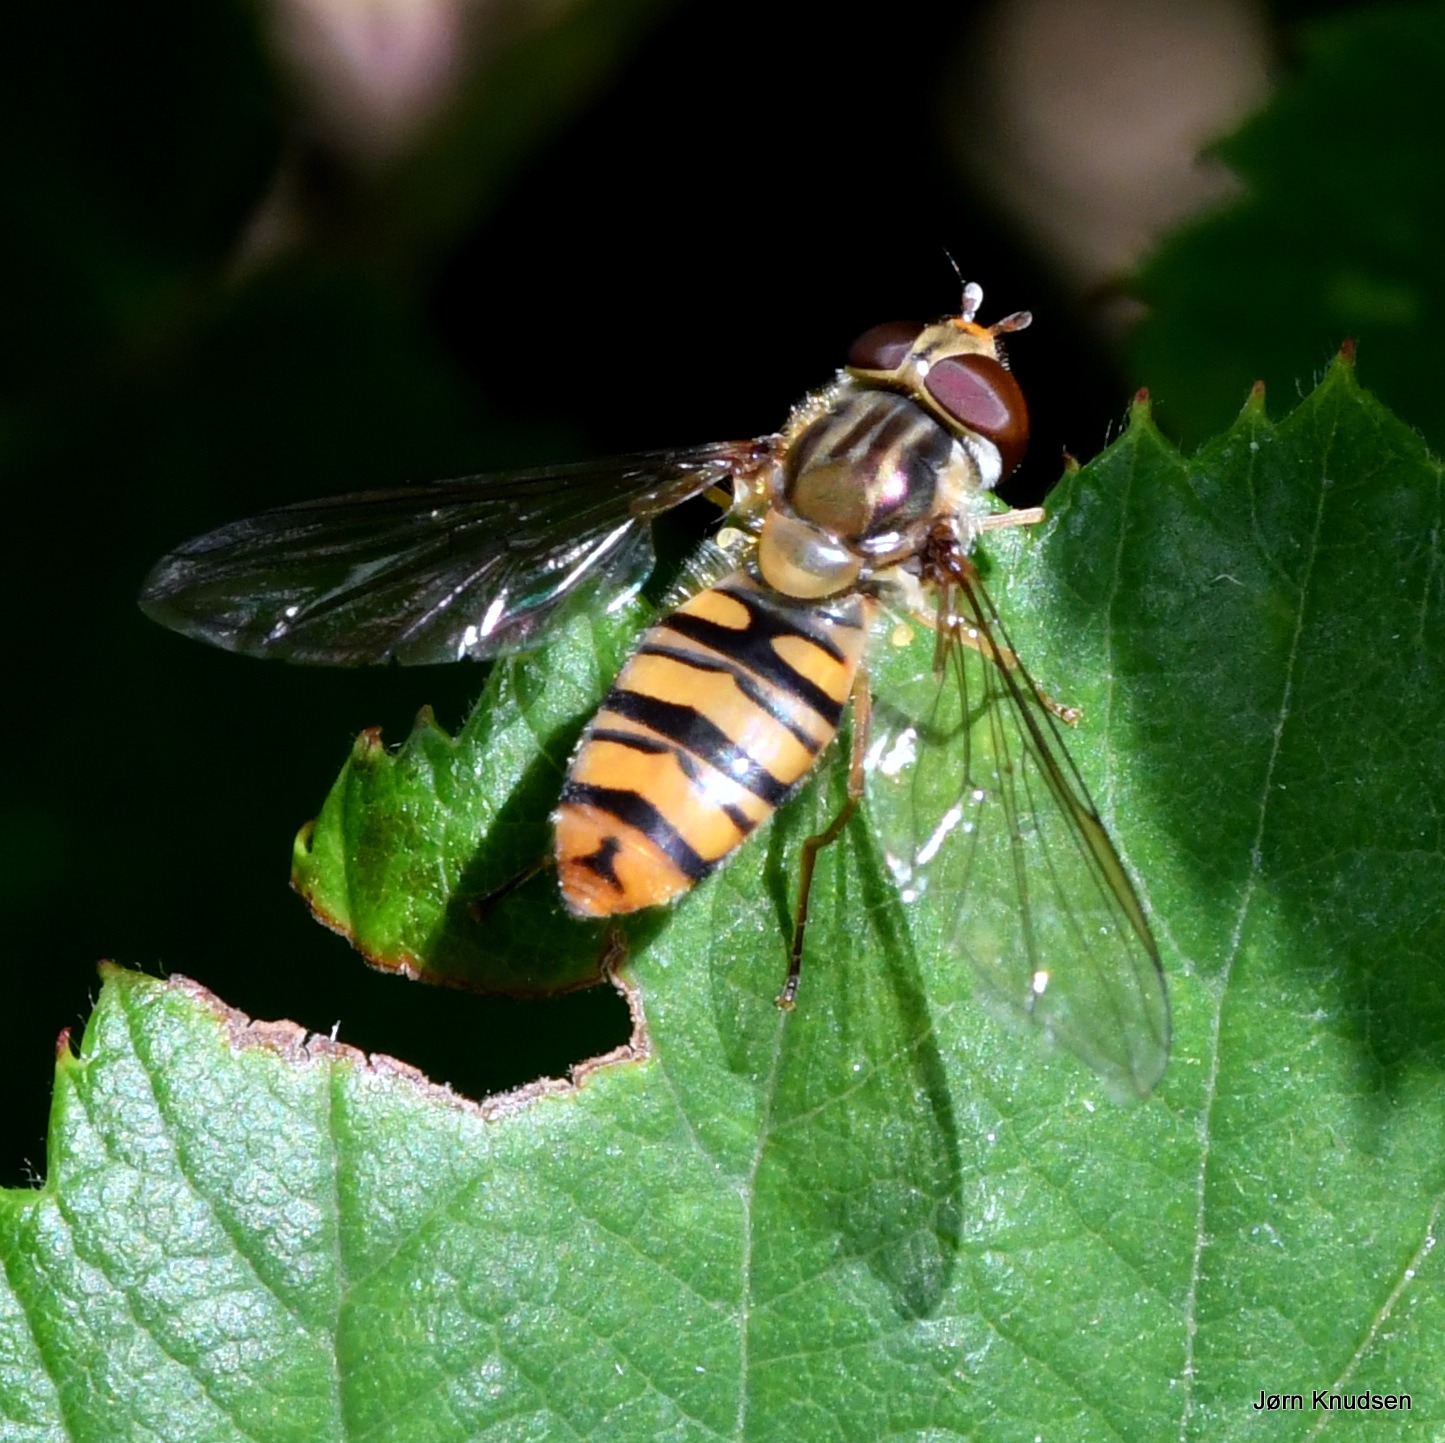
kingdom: Animalia
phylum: Arthropoda
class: Insecta
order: Diptera
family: Syrphidae
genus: Episyrphus
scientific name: Episyrphus balteatus
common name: Dobbeltbåndet svirreflue
